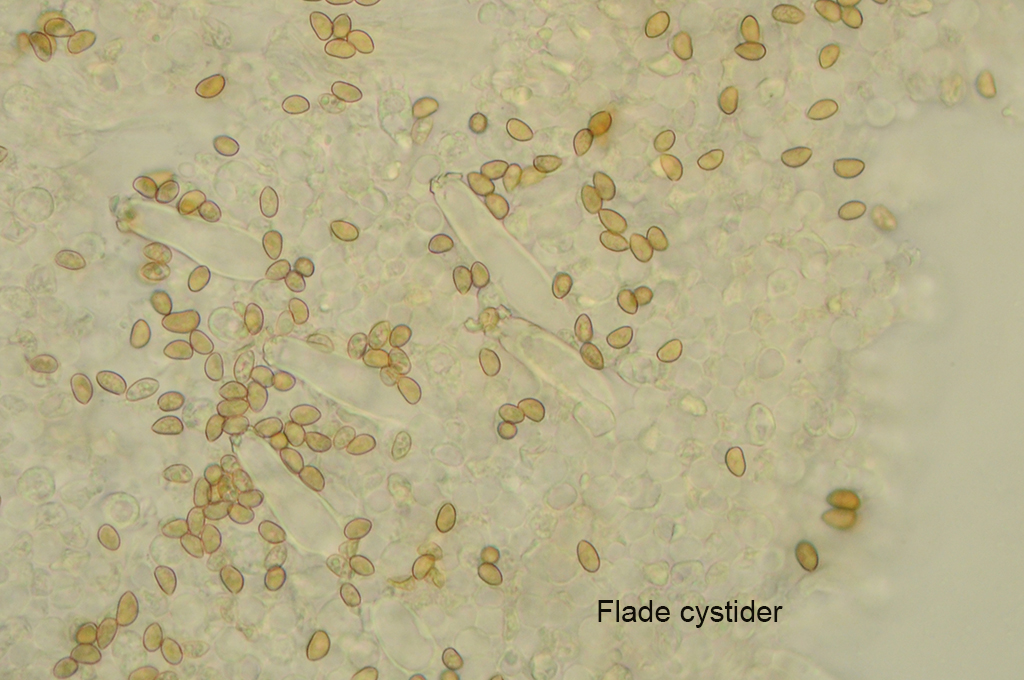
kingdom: Fungi
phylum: Basidiomycota
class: Agaricomycetes
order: Agaricales
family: Inocybaceae
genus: Inocybe
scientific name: Inocybe minimispora
